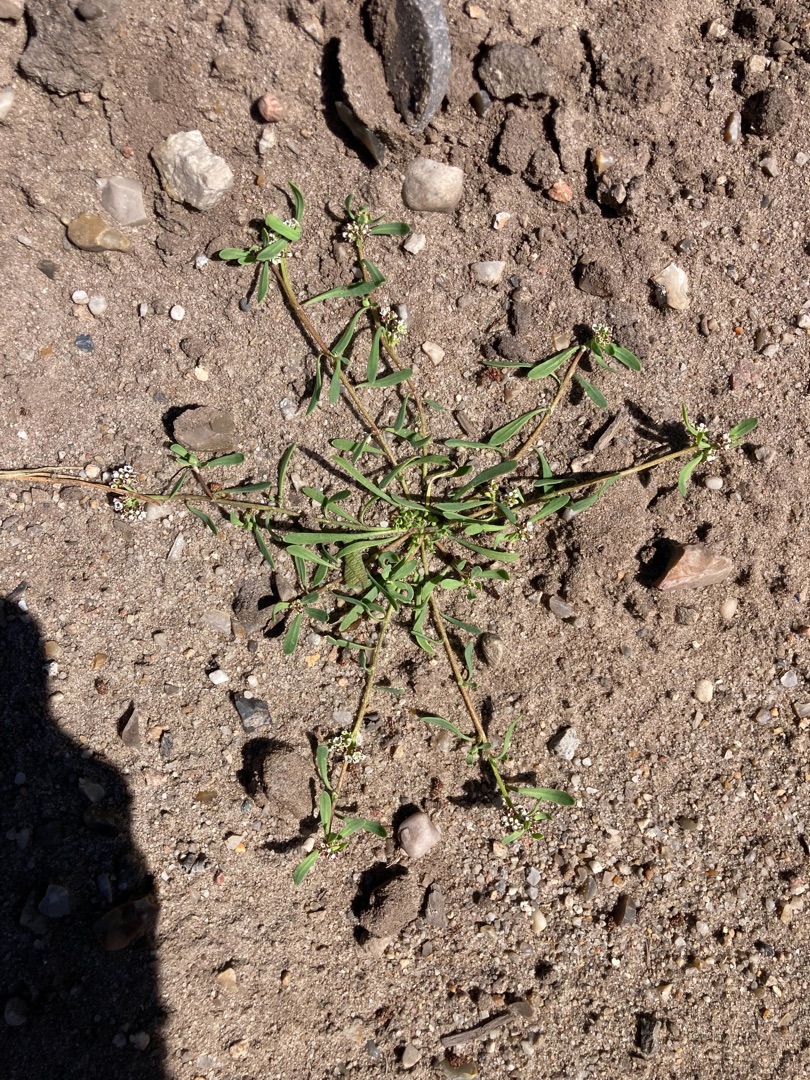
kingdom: Plantae
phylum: Tracheophyta
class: Magnoliopsida
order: Caryophyllales
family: Caryophyllaceae
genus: Corrigiola
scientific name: Corrigiola litoralis
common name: Skorem
